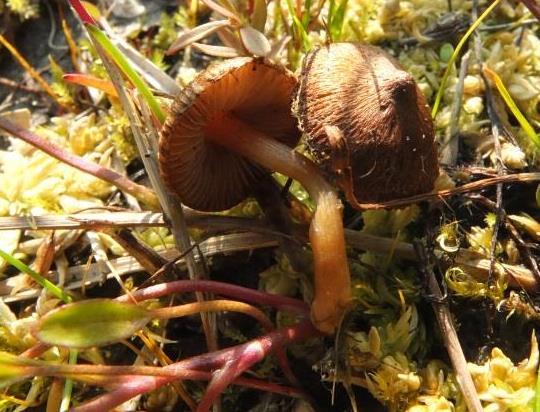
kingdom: Fungi
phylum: Basidiomycota
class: Agaricomycetes
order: Agaricales
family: Inocybaceae
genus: Inocybe
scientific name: Inocybe acuta
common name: papil-trævlhat
